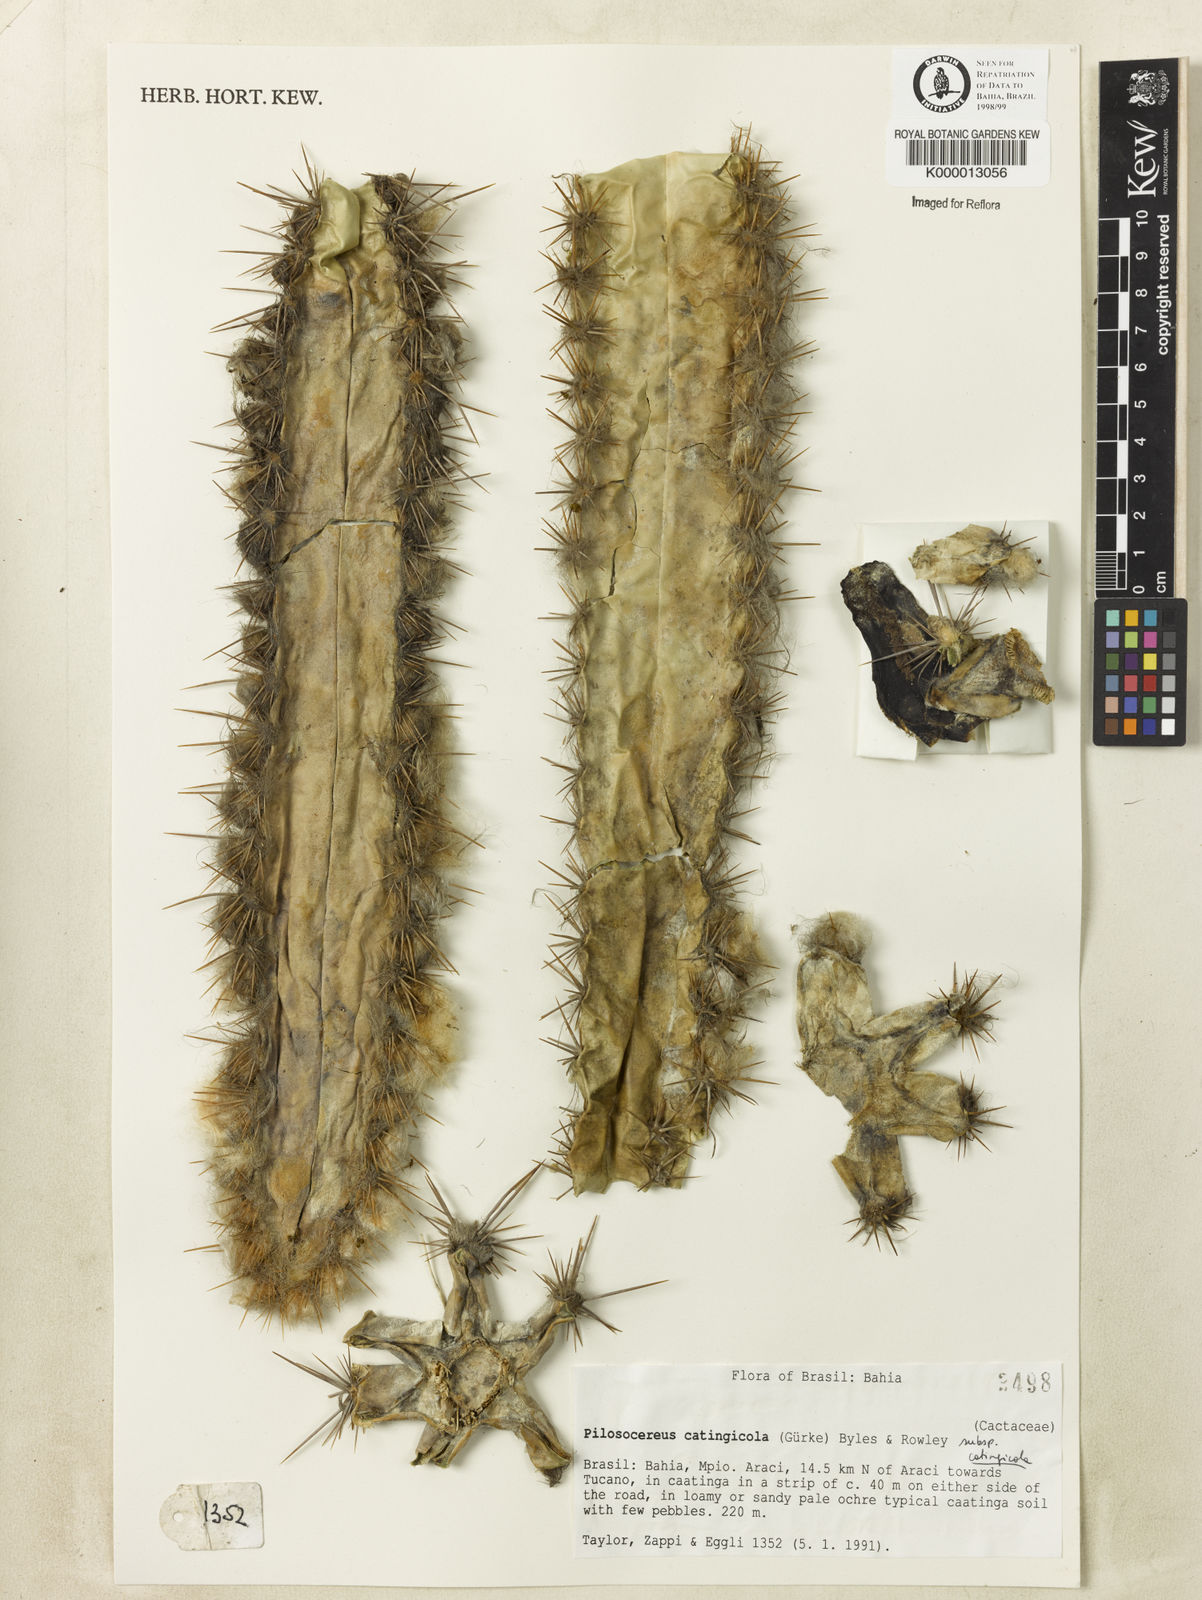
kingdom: Plantae
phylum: Tracheophyta
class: Magnoliopsida
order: Caryophyllales
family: Cactaceae
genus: Pilosocereus
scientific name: Pilosocereus catingicola
